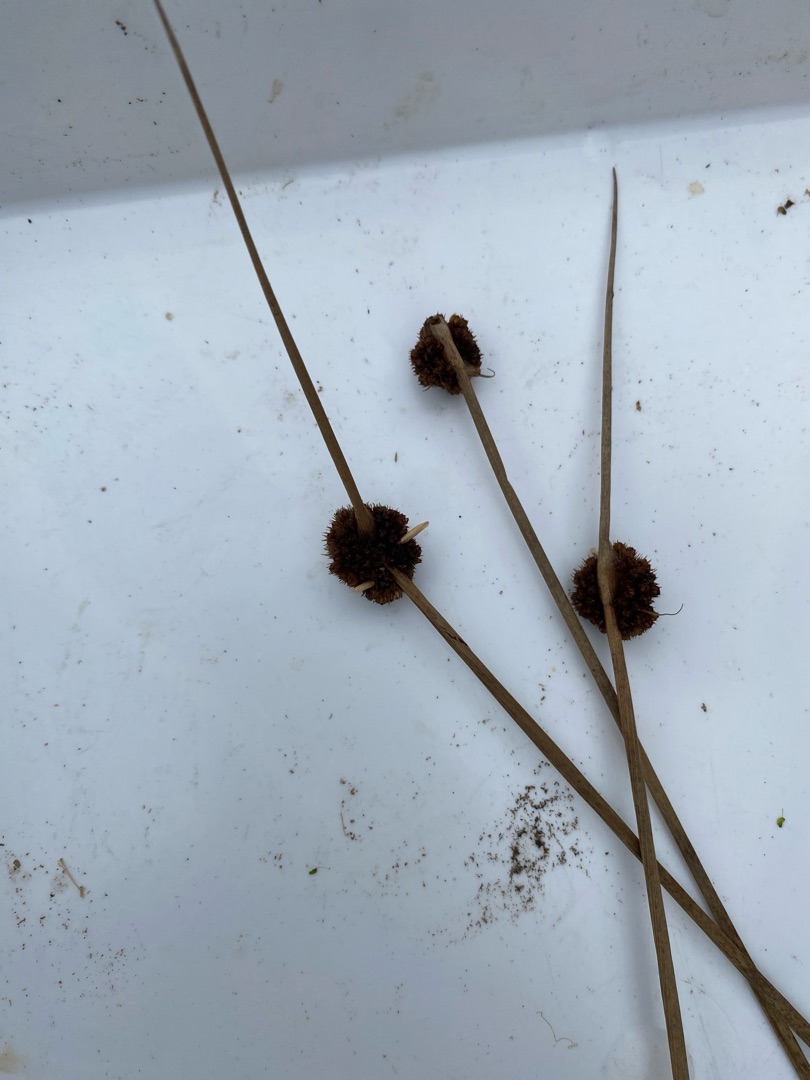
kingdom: Plantae
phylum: Tracheophyta
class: Liliopsida
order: Poales
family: Juncaceae
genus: Juncus
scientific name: Juncus conglomeratus
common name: Knop-siv
